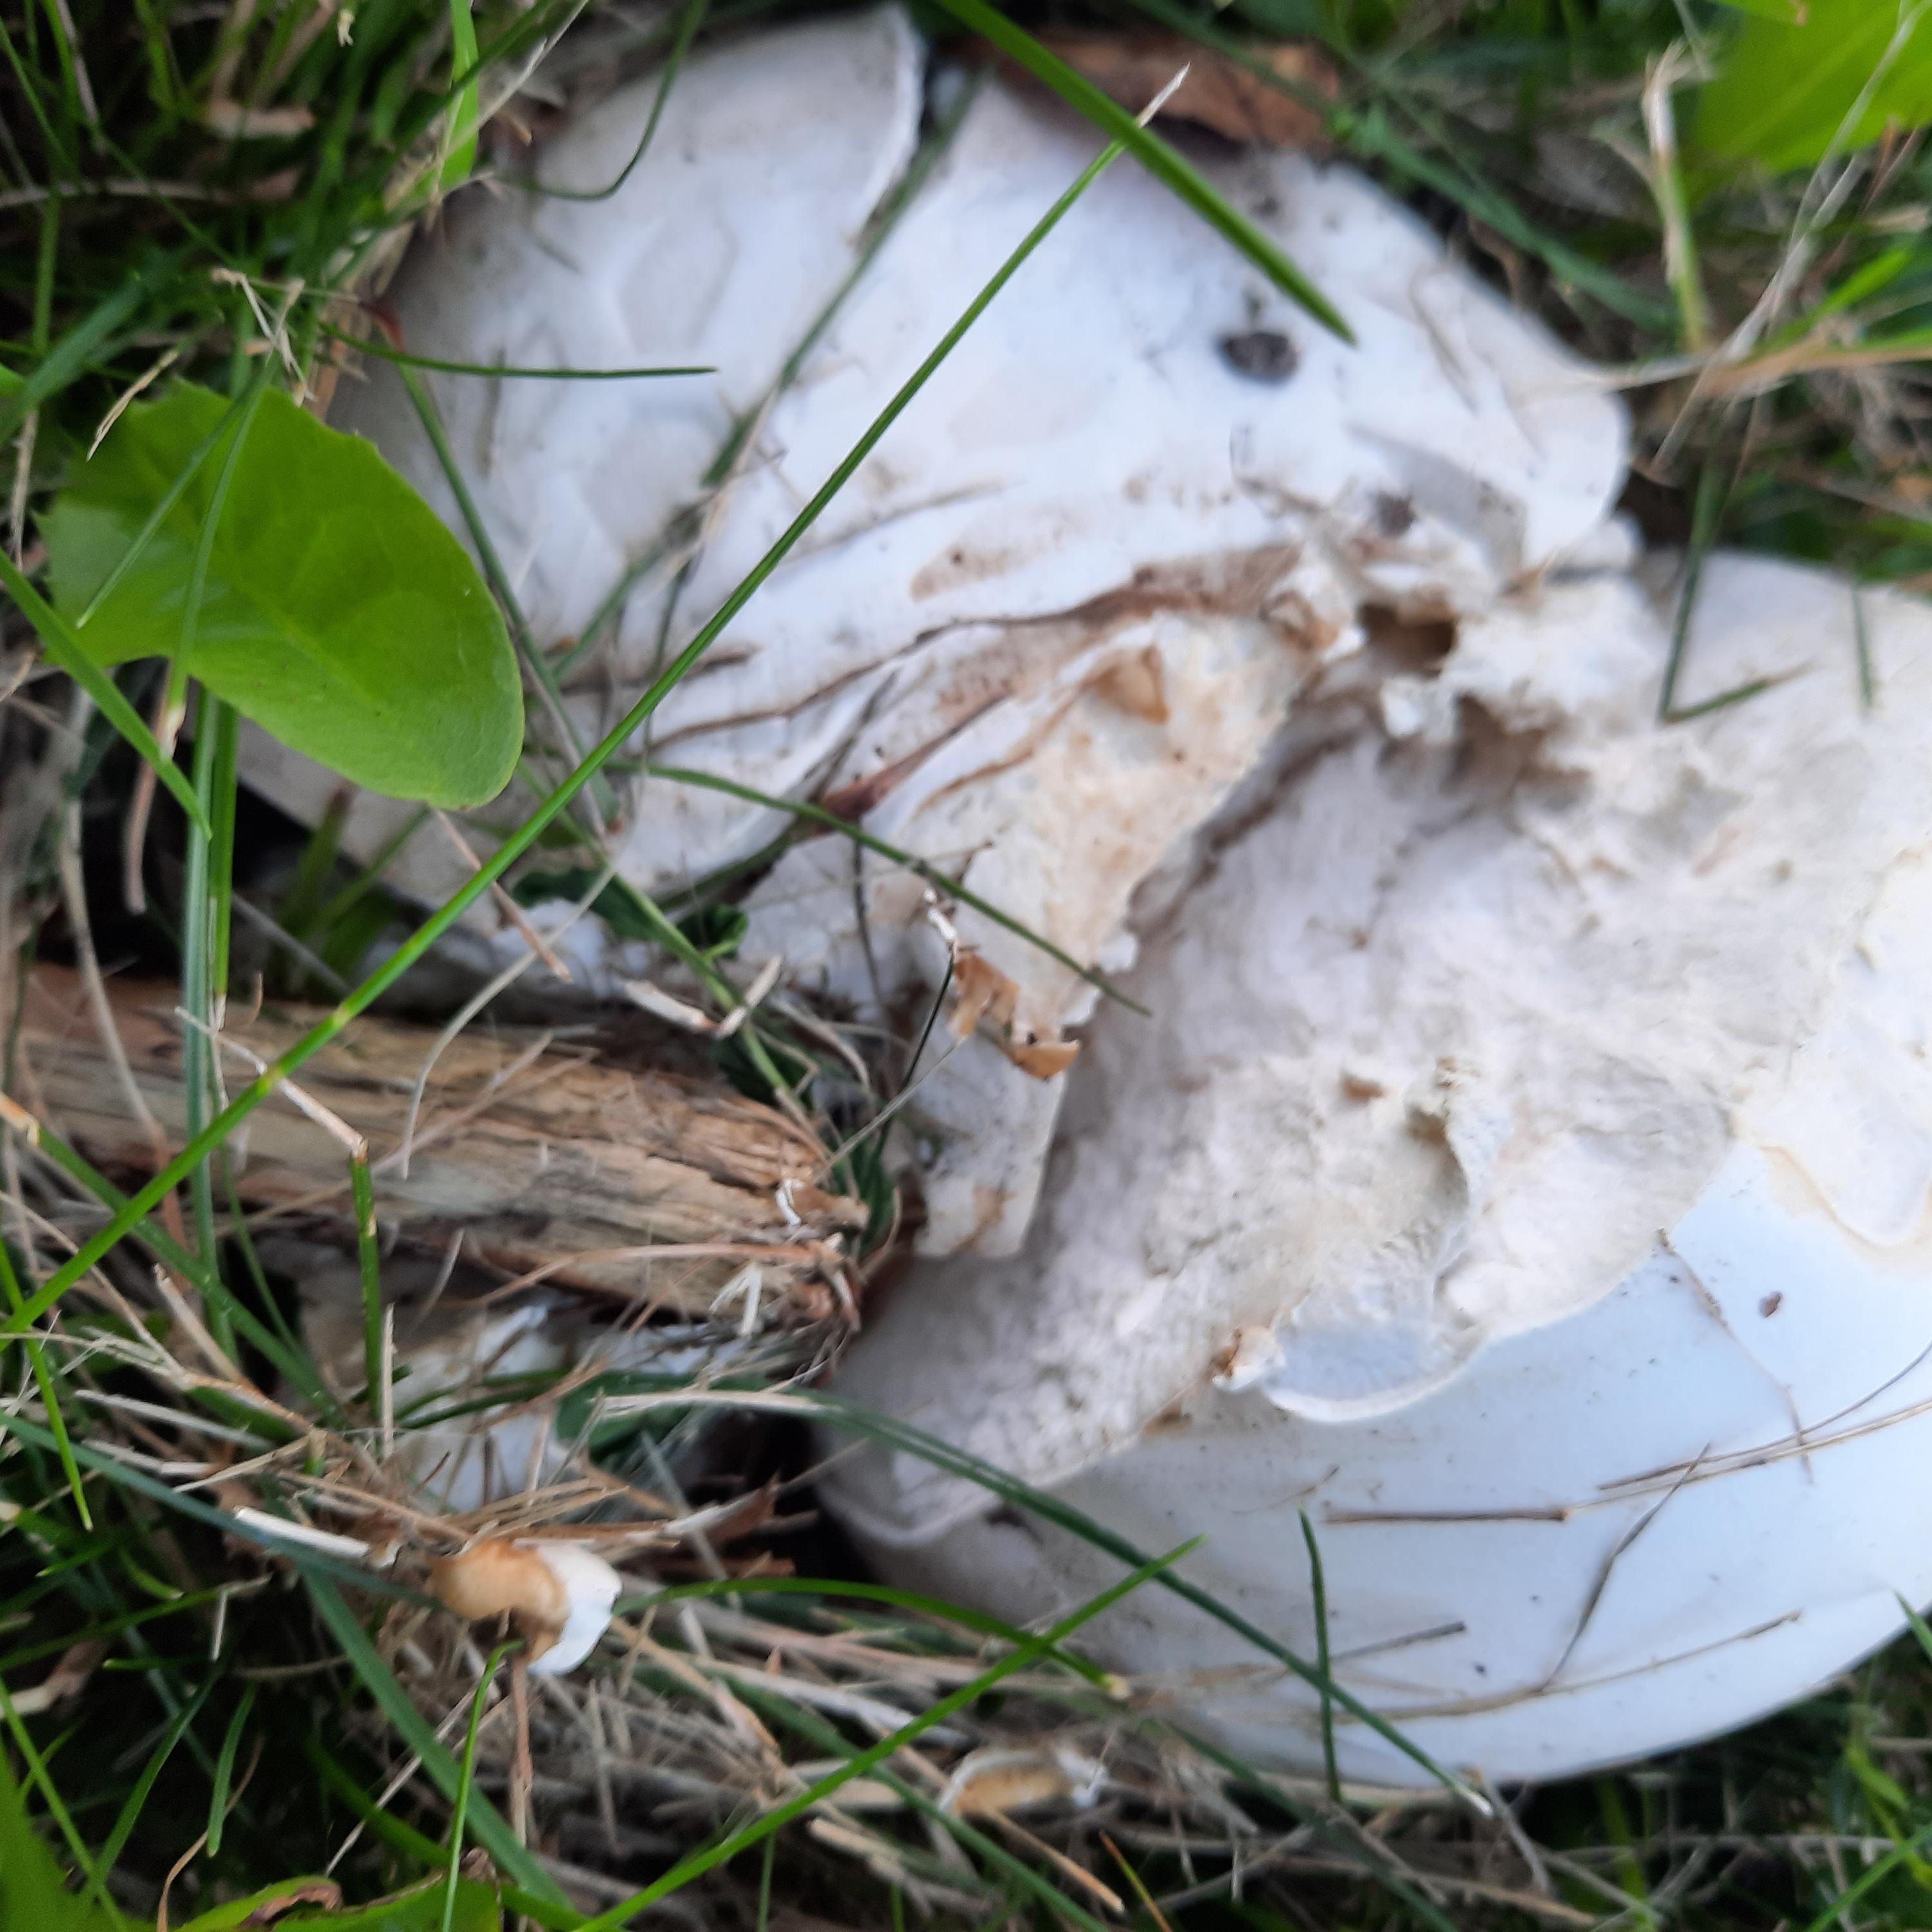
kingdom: Fungi
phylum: Basidiomycota
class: Agaricomycetes
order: Agaricales
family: Lycoperdaceae
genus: Calvatia
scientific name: Calvatia gigantea
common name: kæmpestøvbold
